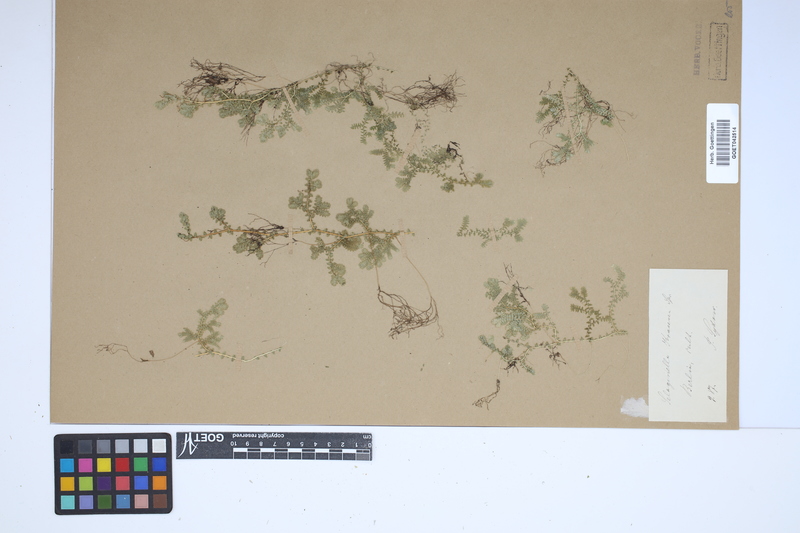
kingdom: Plantae
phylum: Tracheophyta
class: Lycopodiopsida
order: Selaginellales
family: Selaginellaceae
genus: Selaginella
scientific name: Selaginella kraussiana
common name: Krauss' spikemoss
